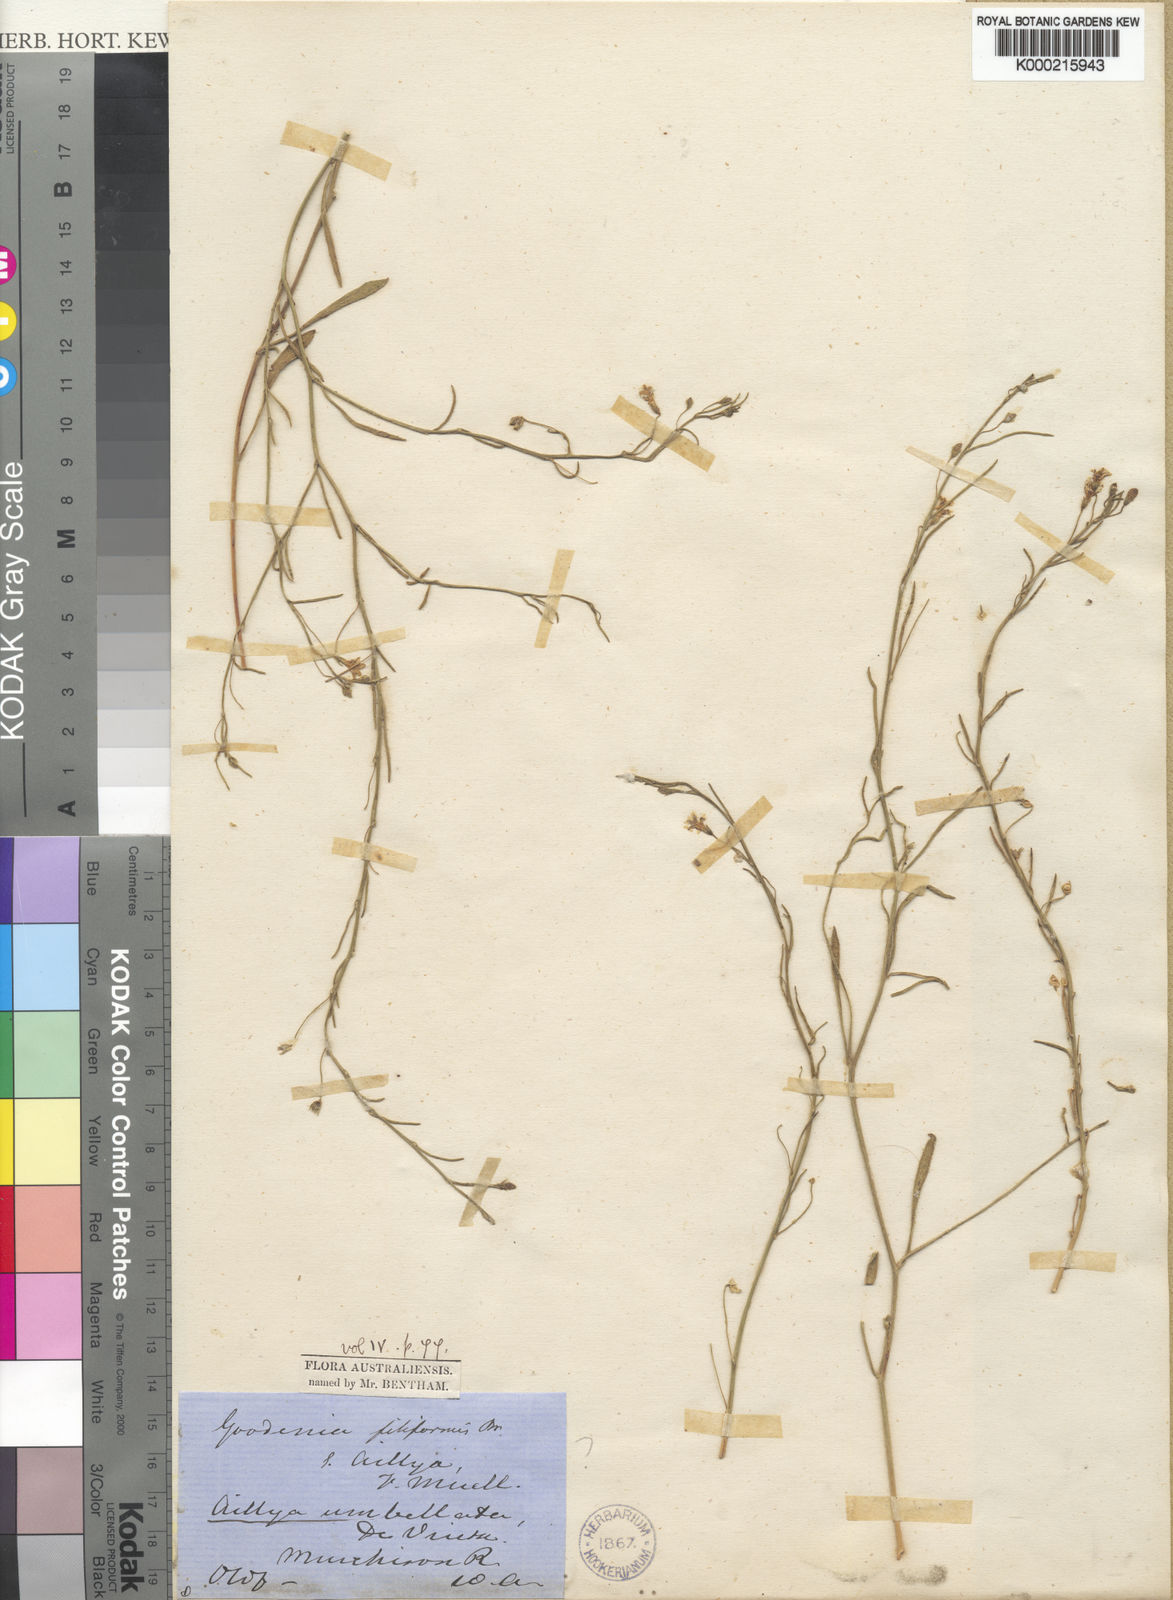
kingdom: Plantae
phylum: Tracheophyta
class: Magnoliopsida
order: Asterales
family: Goodeniaceae
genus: Goodenia
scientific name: Goodenia filiformis
